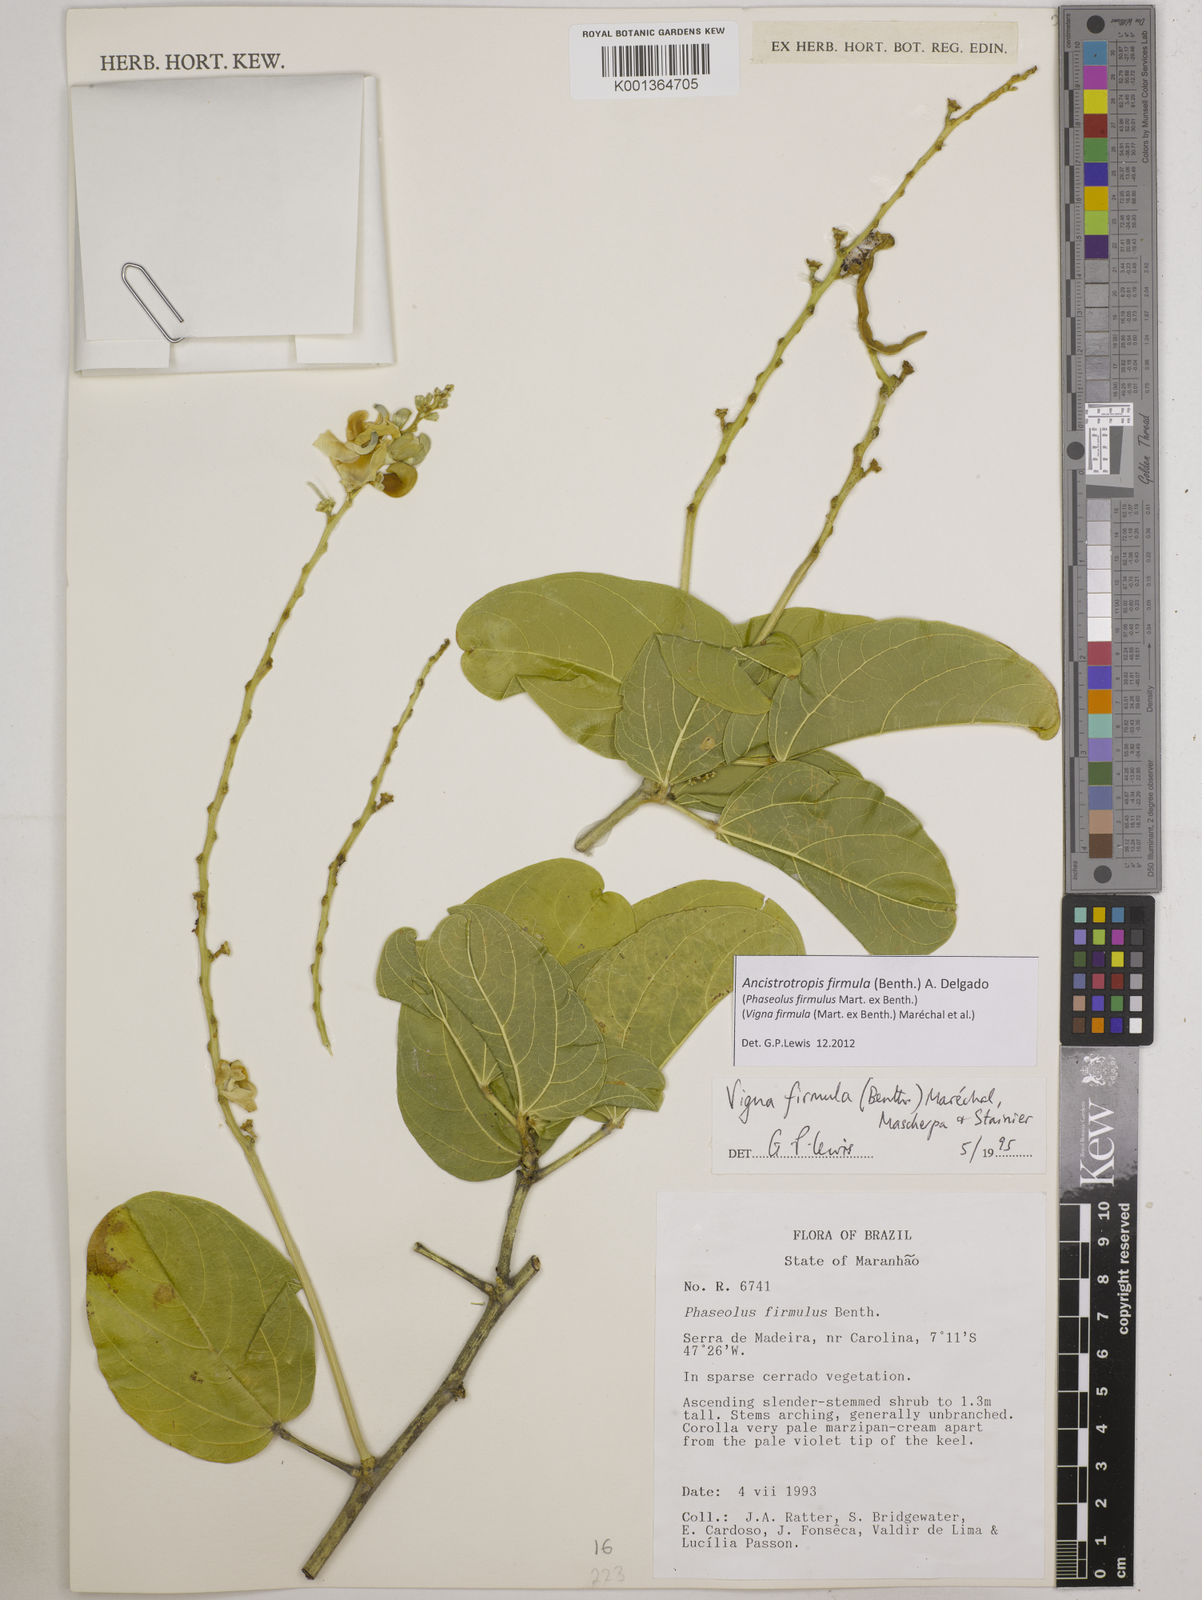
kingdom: Plantae
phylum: Tracheophyta
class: Magnoliopsida
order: Fabales
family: Fabaceae
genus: Ancistrotropis
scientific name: Ancistrotropis firmula
